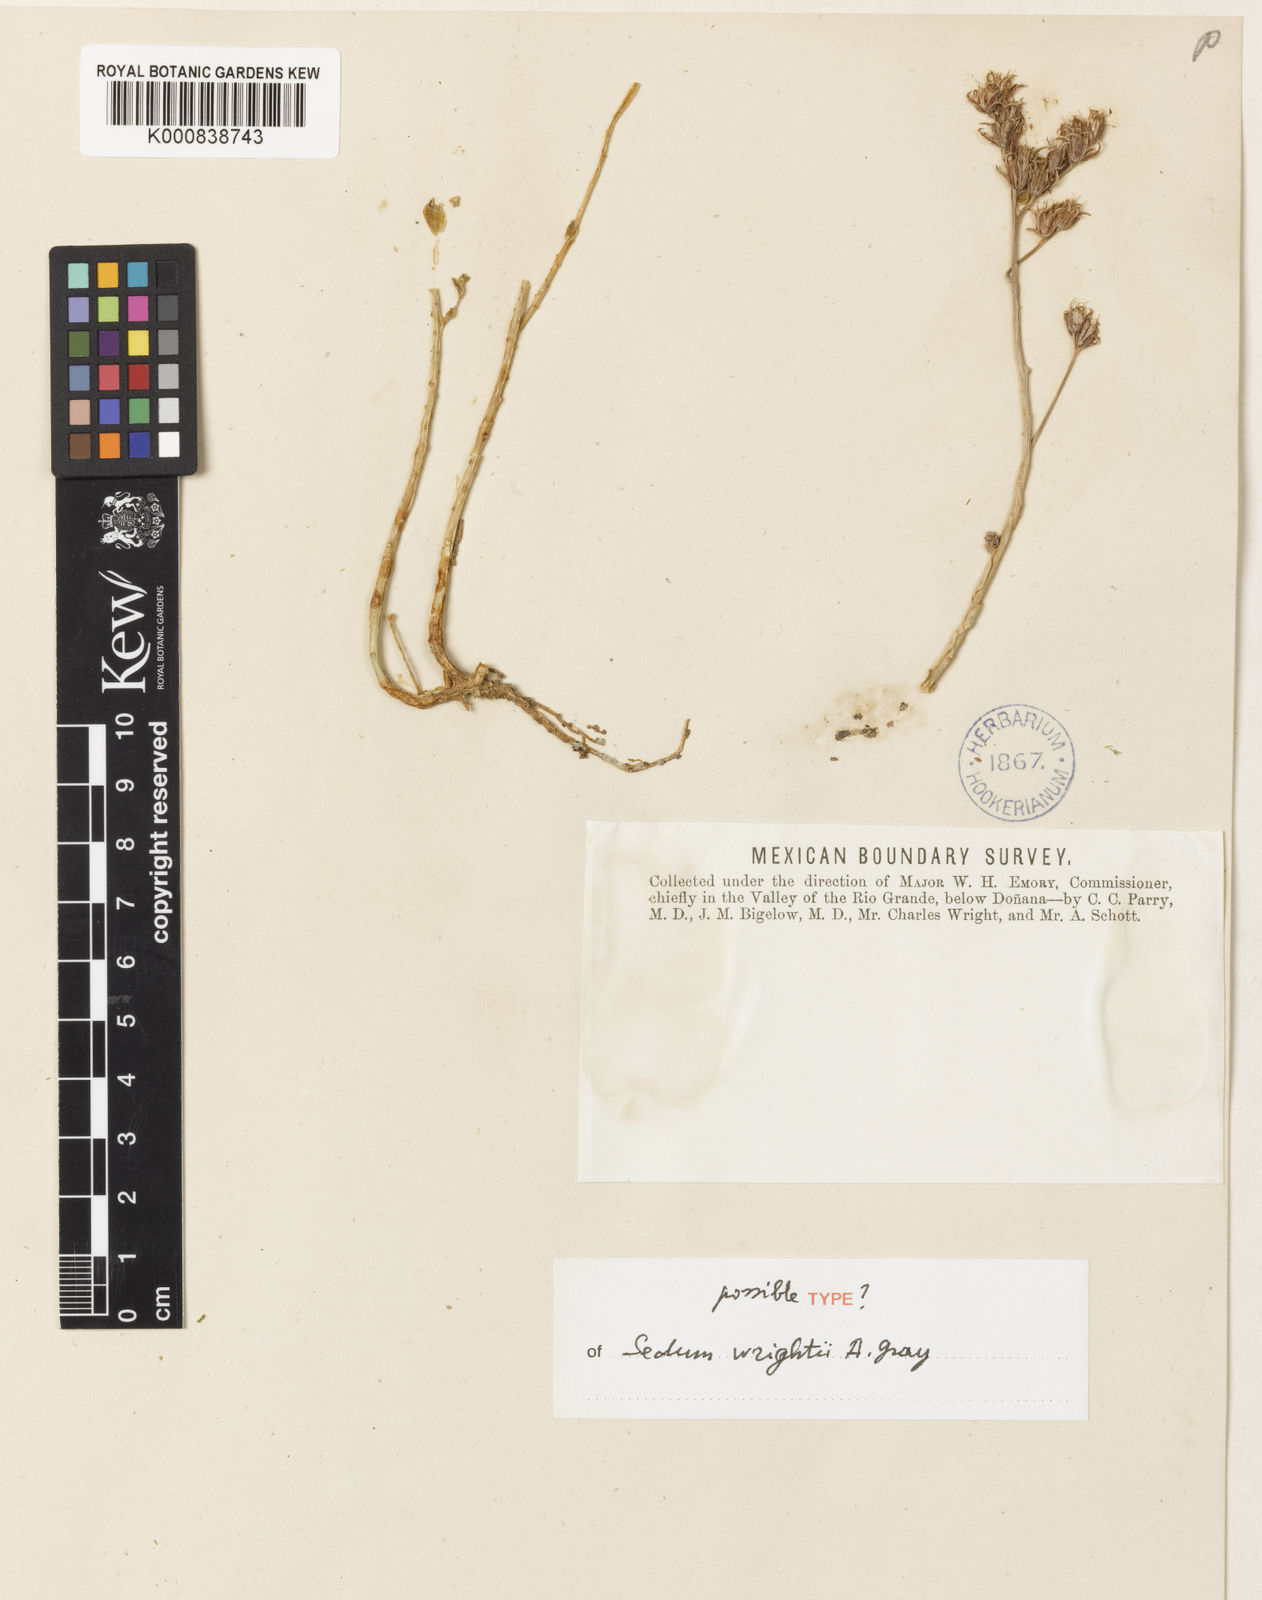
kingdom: Plantae
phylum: Tracheophyta
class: Magnoliopsida
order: Saxifragales
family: Crassulaceae
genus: Sedum
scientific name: Sedum wrightii
